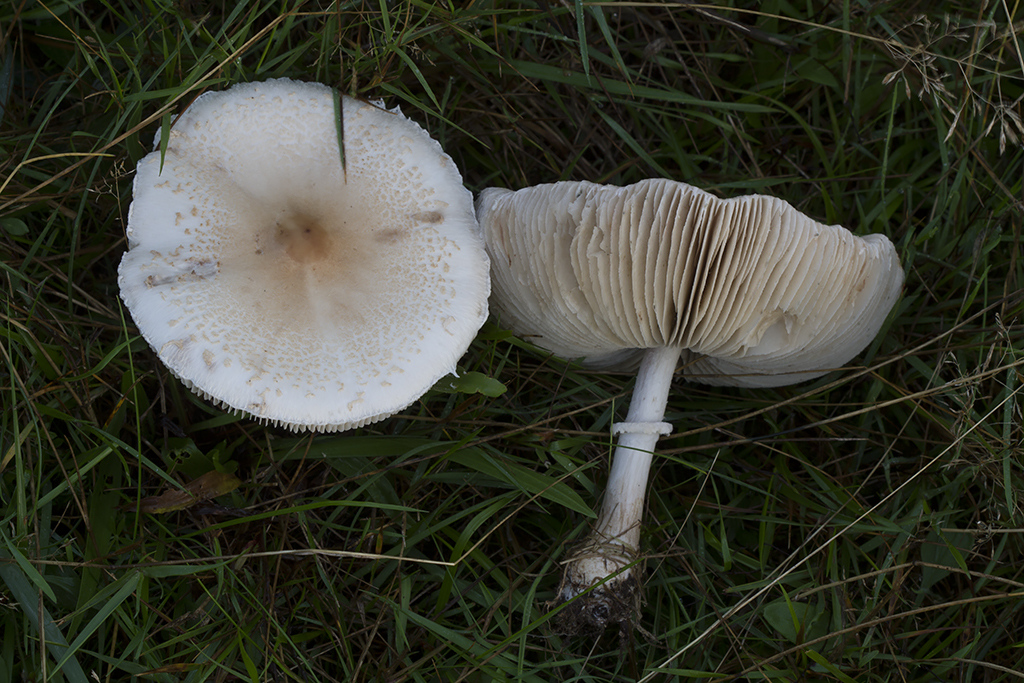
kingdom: Fungi
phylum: Basidiomycota
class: Agaricomycetes
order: Agaricales
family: Agaricaceae
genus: Macrolepiota
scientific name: Macrolepiota excoriata
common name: mark-kæmpeparasolhat
